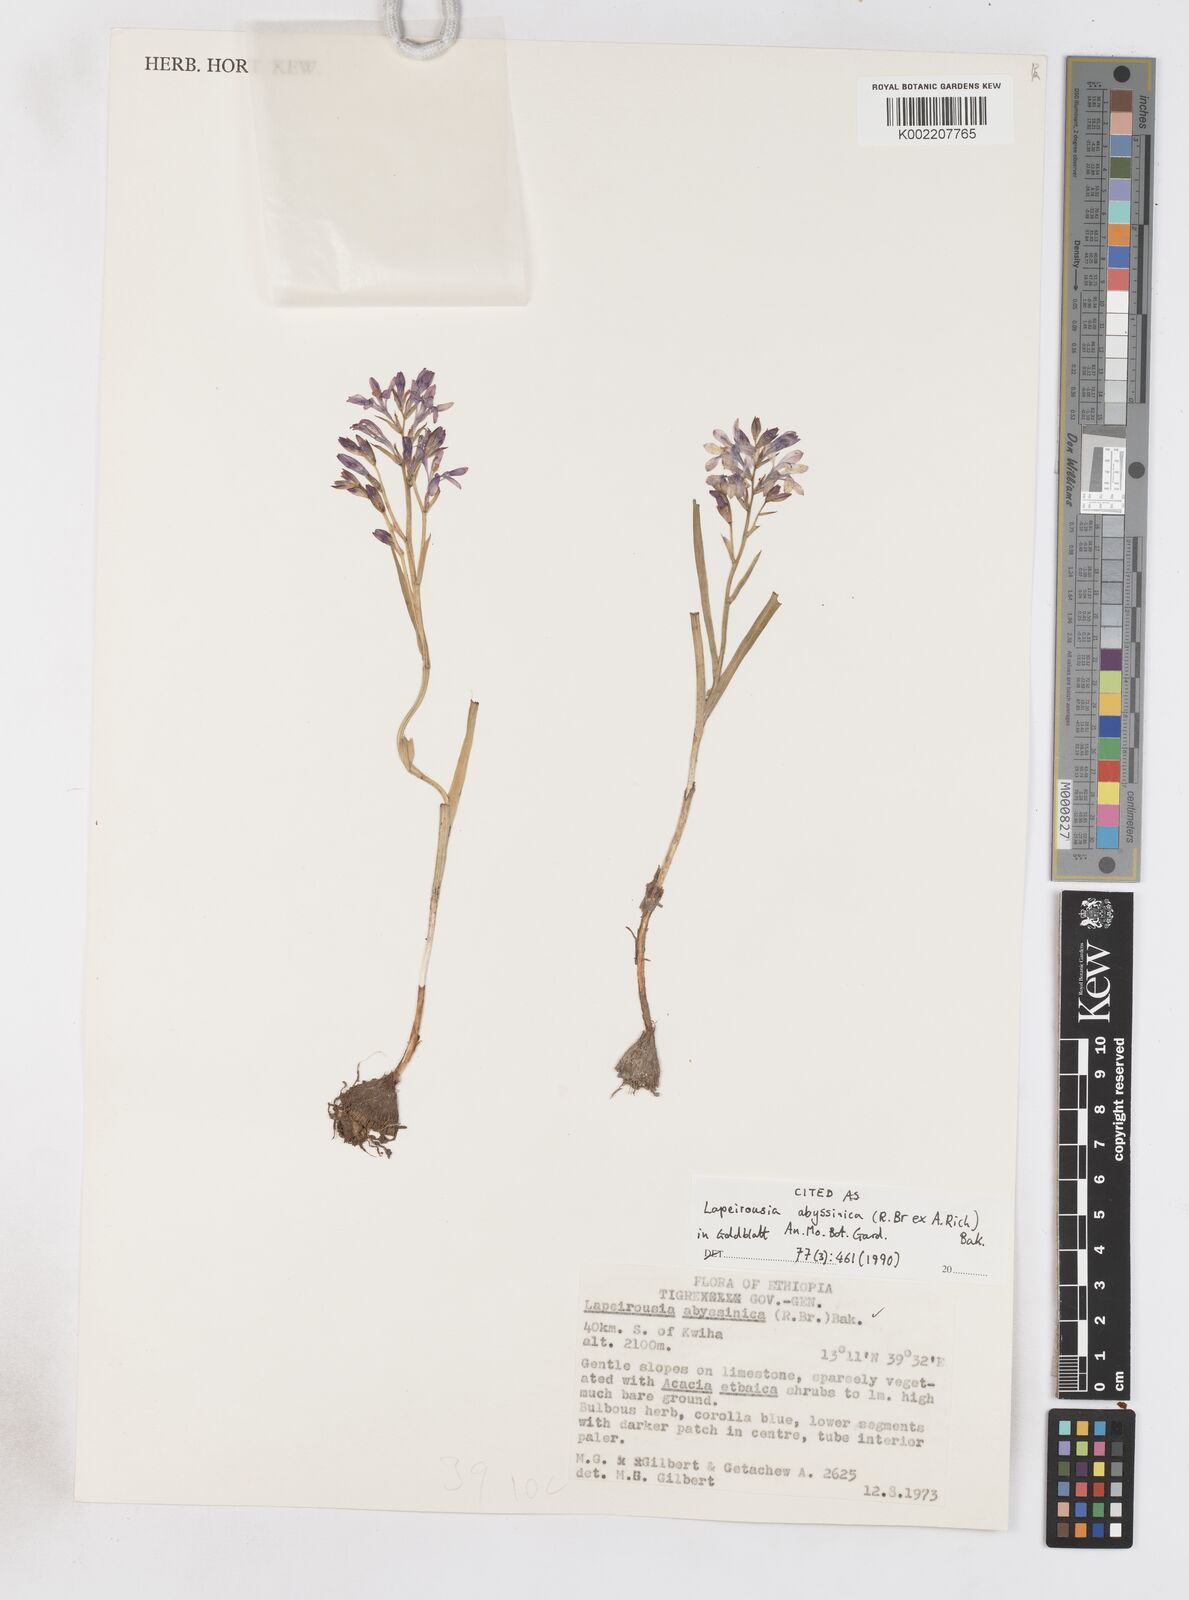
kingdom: Plantae
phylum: Tracheophyta
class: Liliopsida
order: Asparagales
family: Iridaceae
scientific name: Iridaceae
